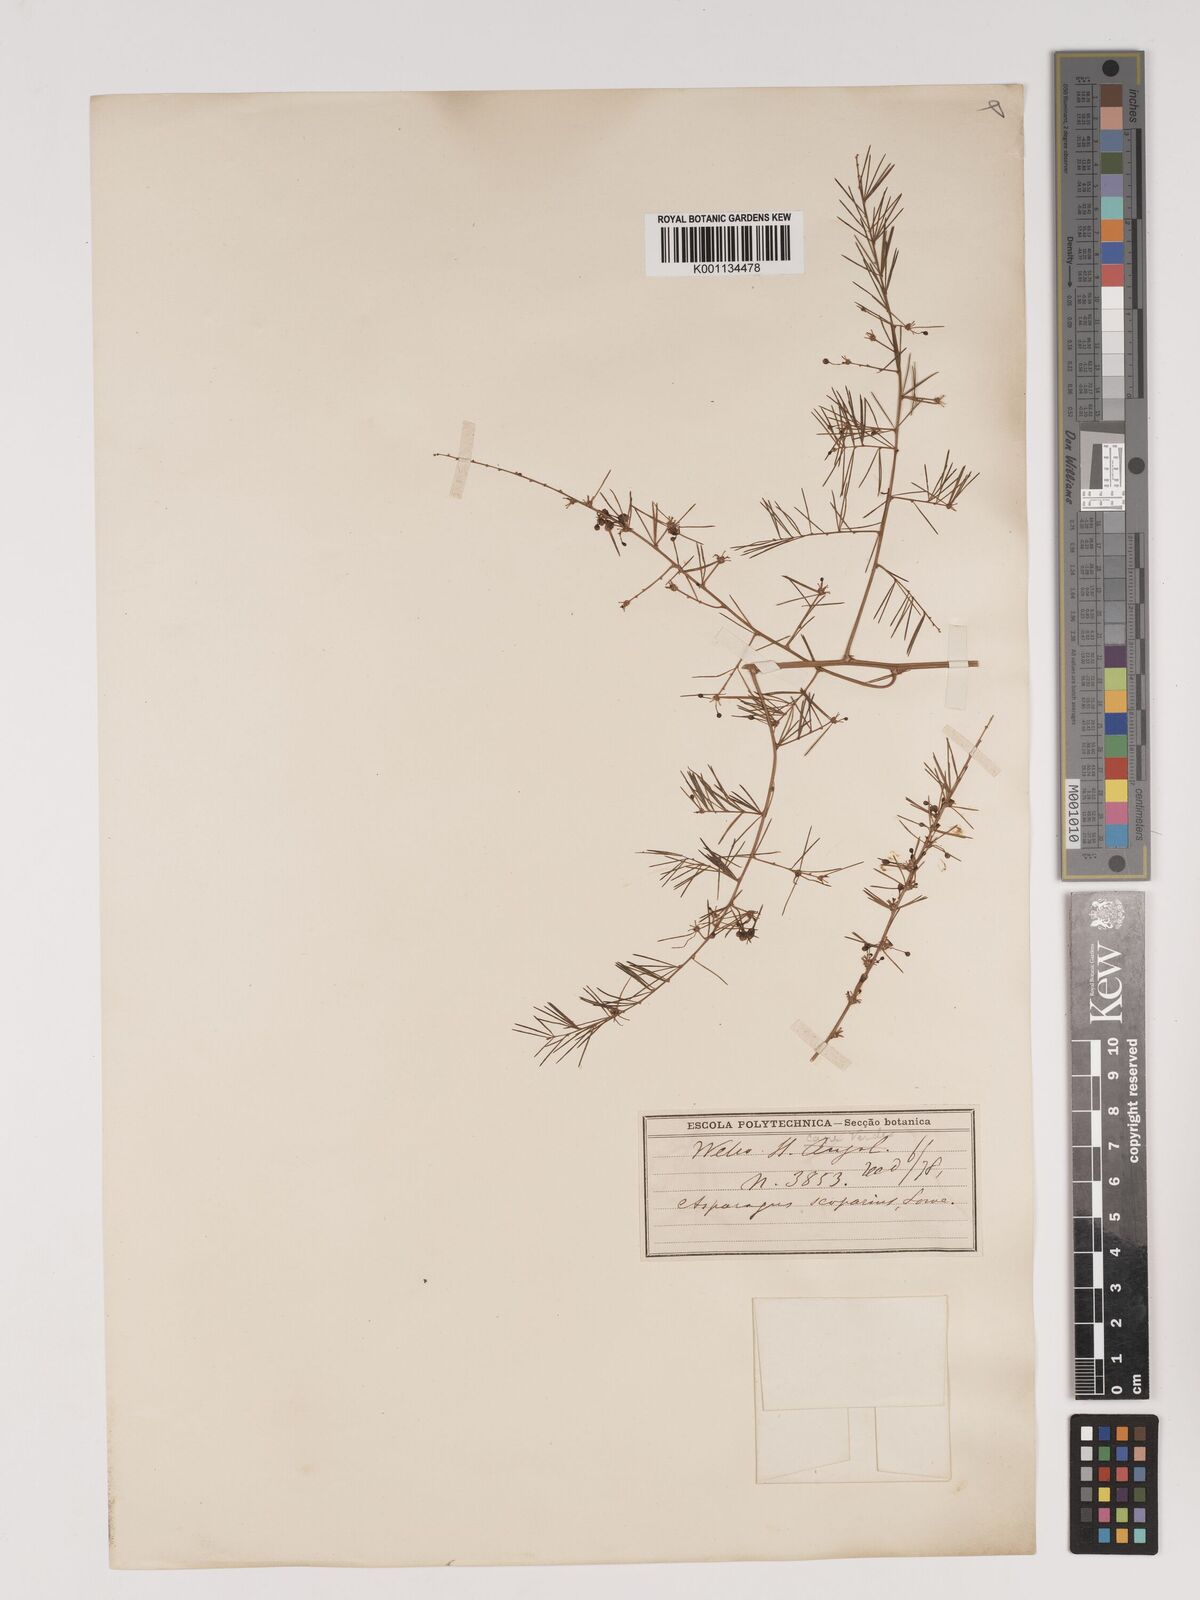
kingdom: Plantae
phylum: Tracheophyta
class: Liliopsida
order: Asparagales
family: Asparagaceae
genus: Asparagus
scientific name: Asparagus scoparius
